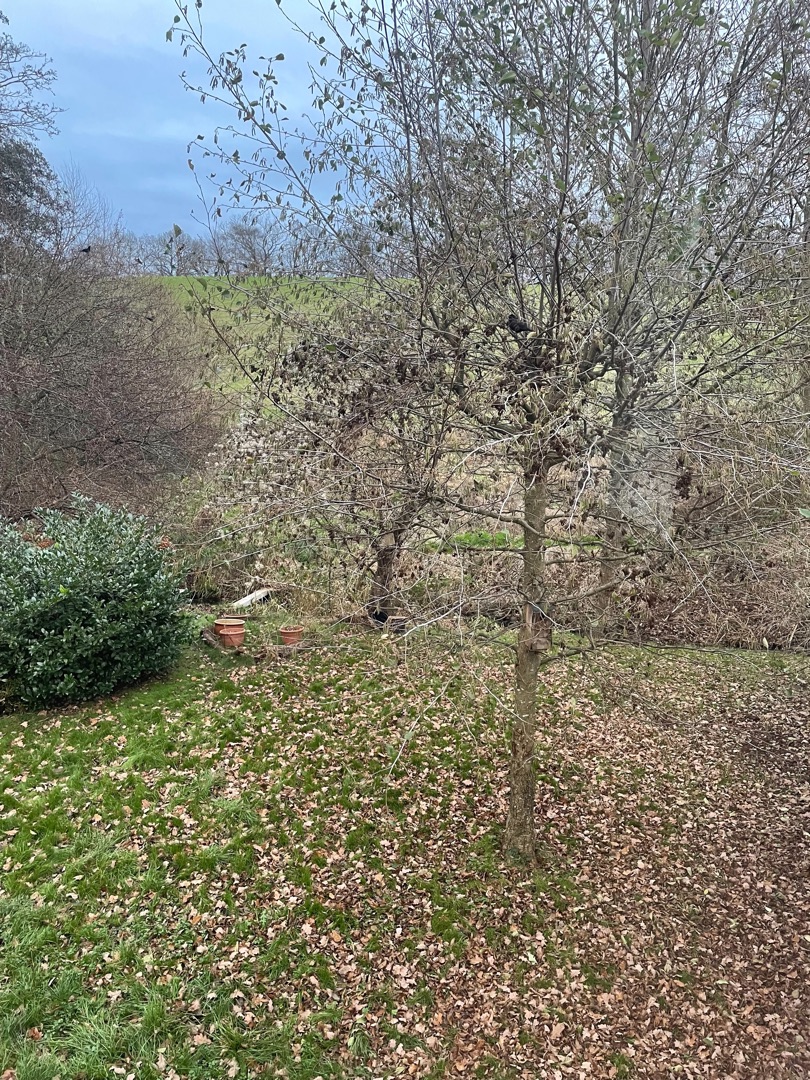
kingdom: Animalia
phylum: Chordata
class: Aves
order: Passeriformes
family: Turdidae
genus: Turdus
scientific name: Turdus merula
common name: Solsort
